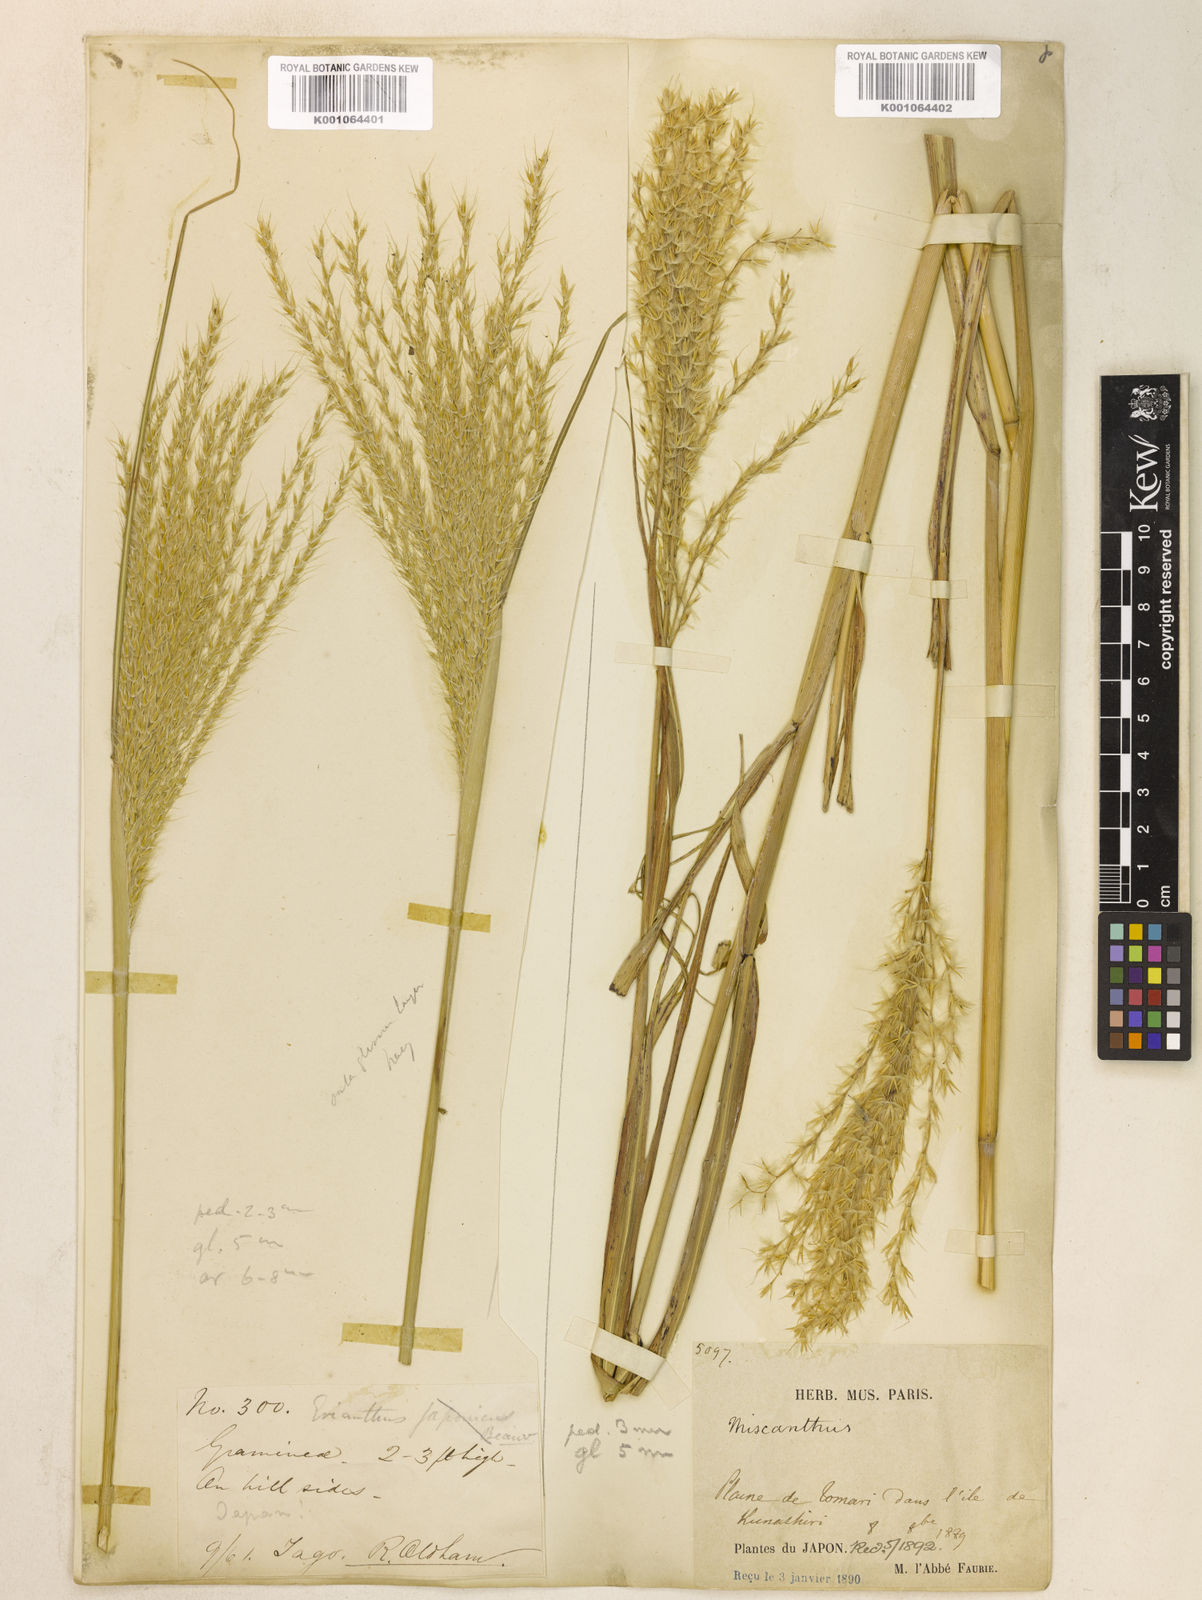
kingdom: Plantae
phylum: Tracheophyta
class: Liliopsida
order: Poales
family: Poaceae
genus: Miscanthus
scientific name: Miscanthus sinensis
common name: Chinese silvergrass
